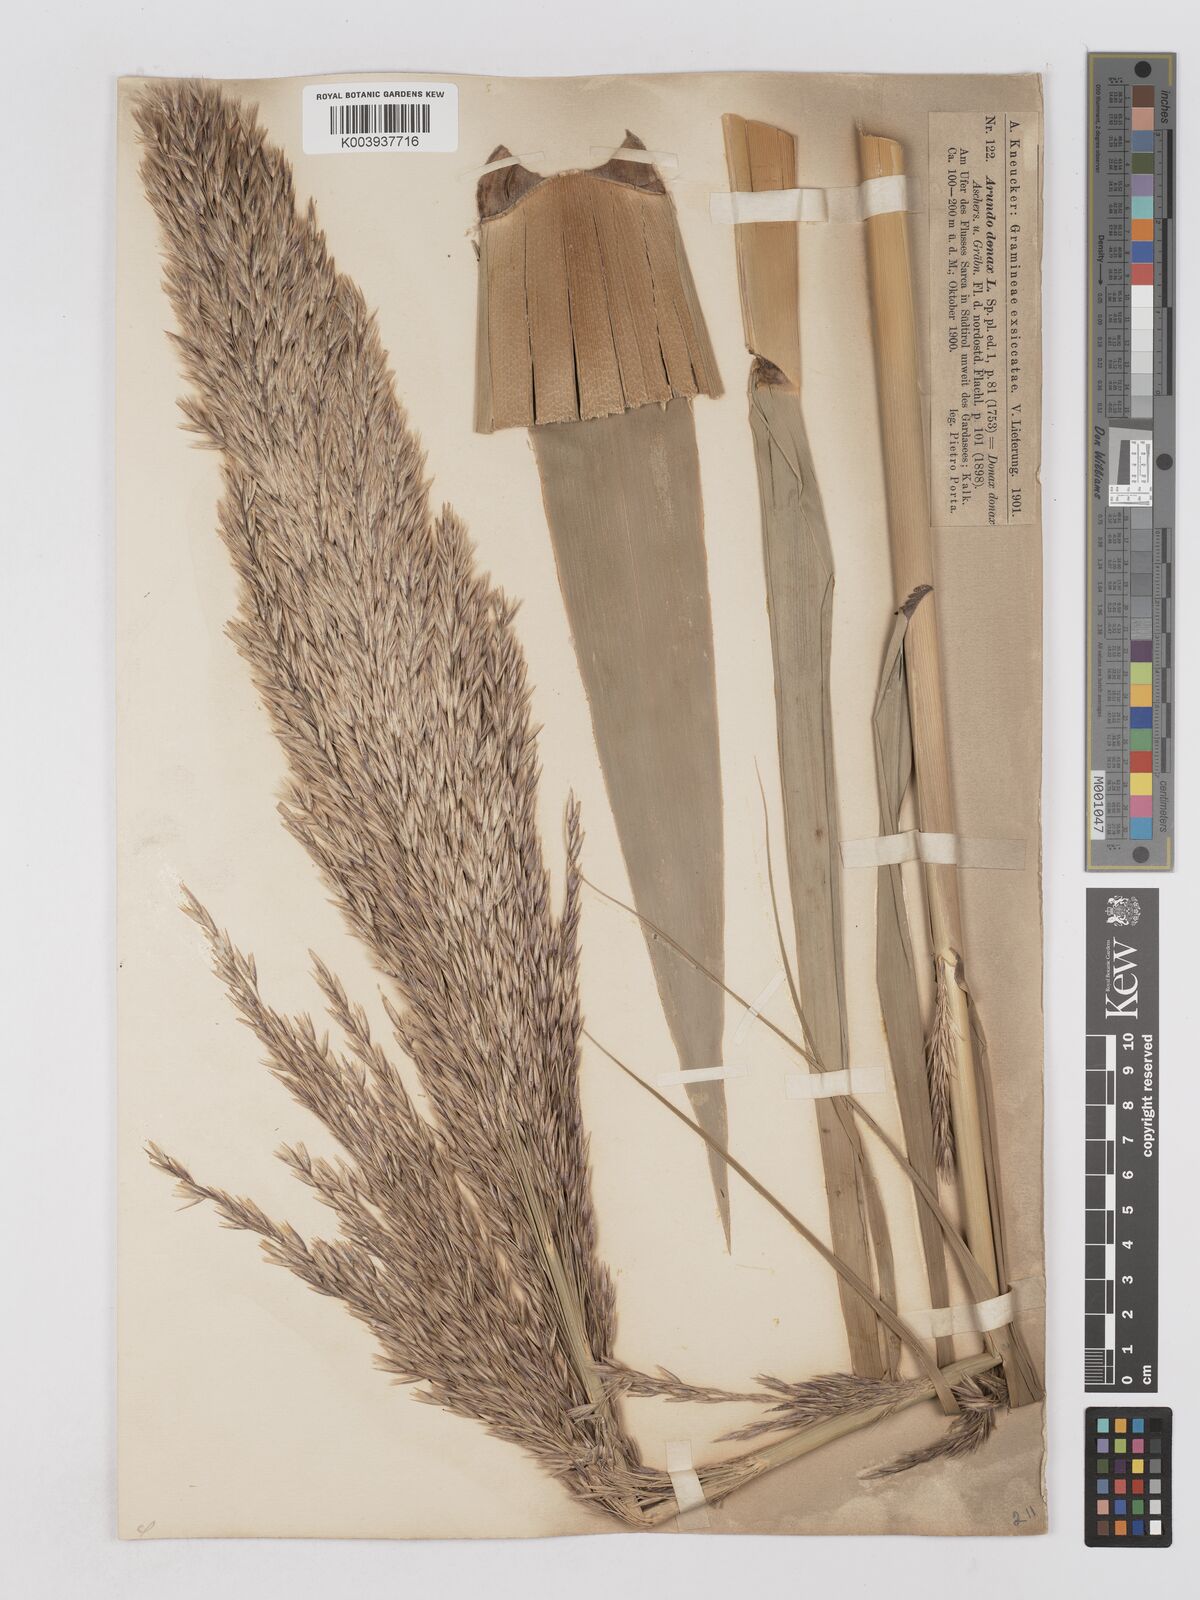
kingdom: Plantae
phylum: Tracheophyta
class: Liliopsida
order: Poales
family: Poaceae
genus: Arundo
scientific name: Arundo donax
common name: Giant reed
